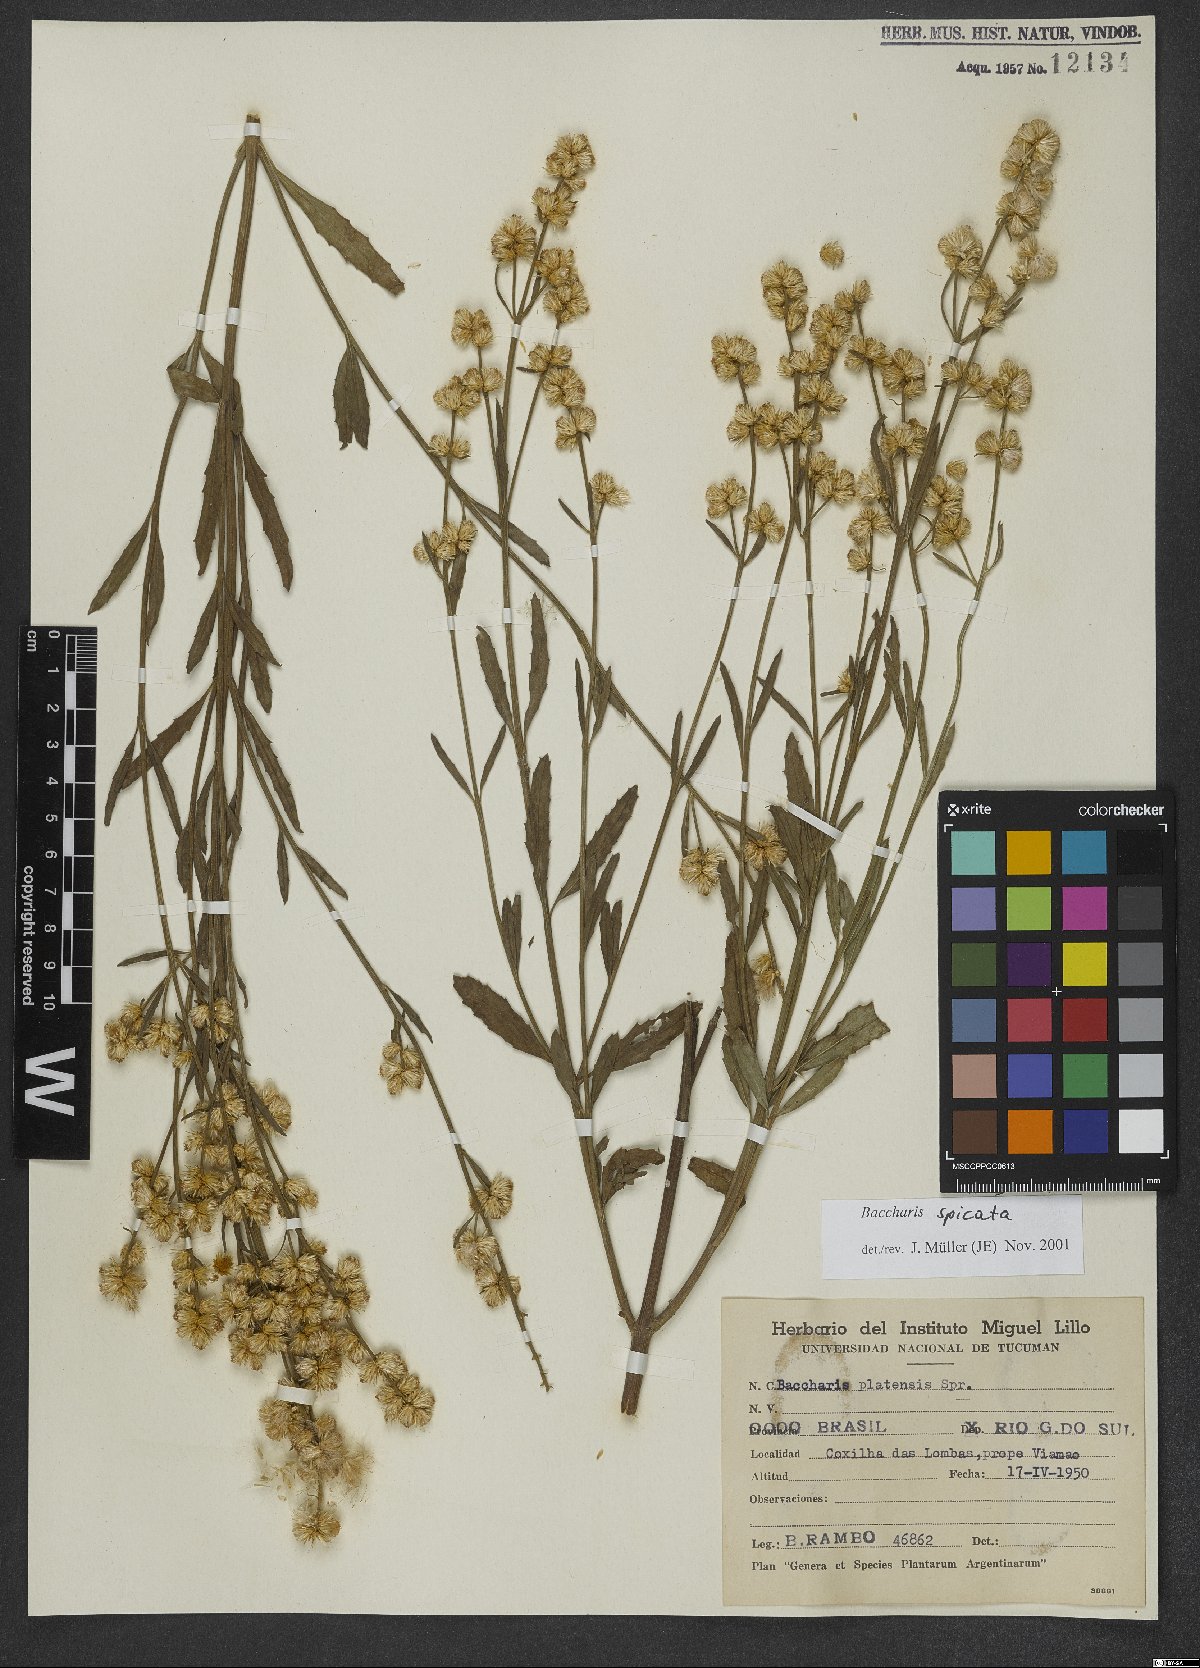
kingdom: Plantae
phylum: Tracheophyta
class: Magnoliopsida
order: Asterales
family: Asteraceae
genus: Baccharis
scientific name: Baccharis spicata
